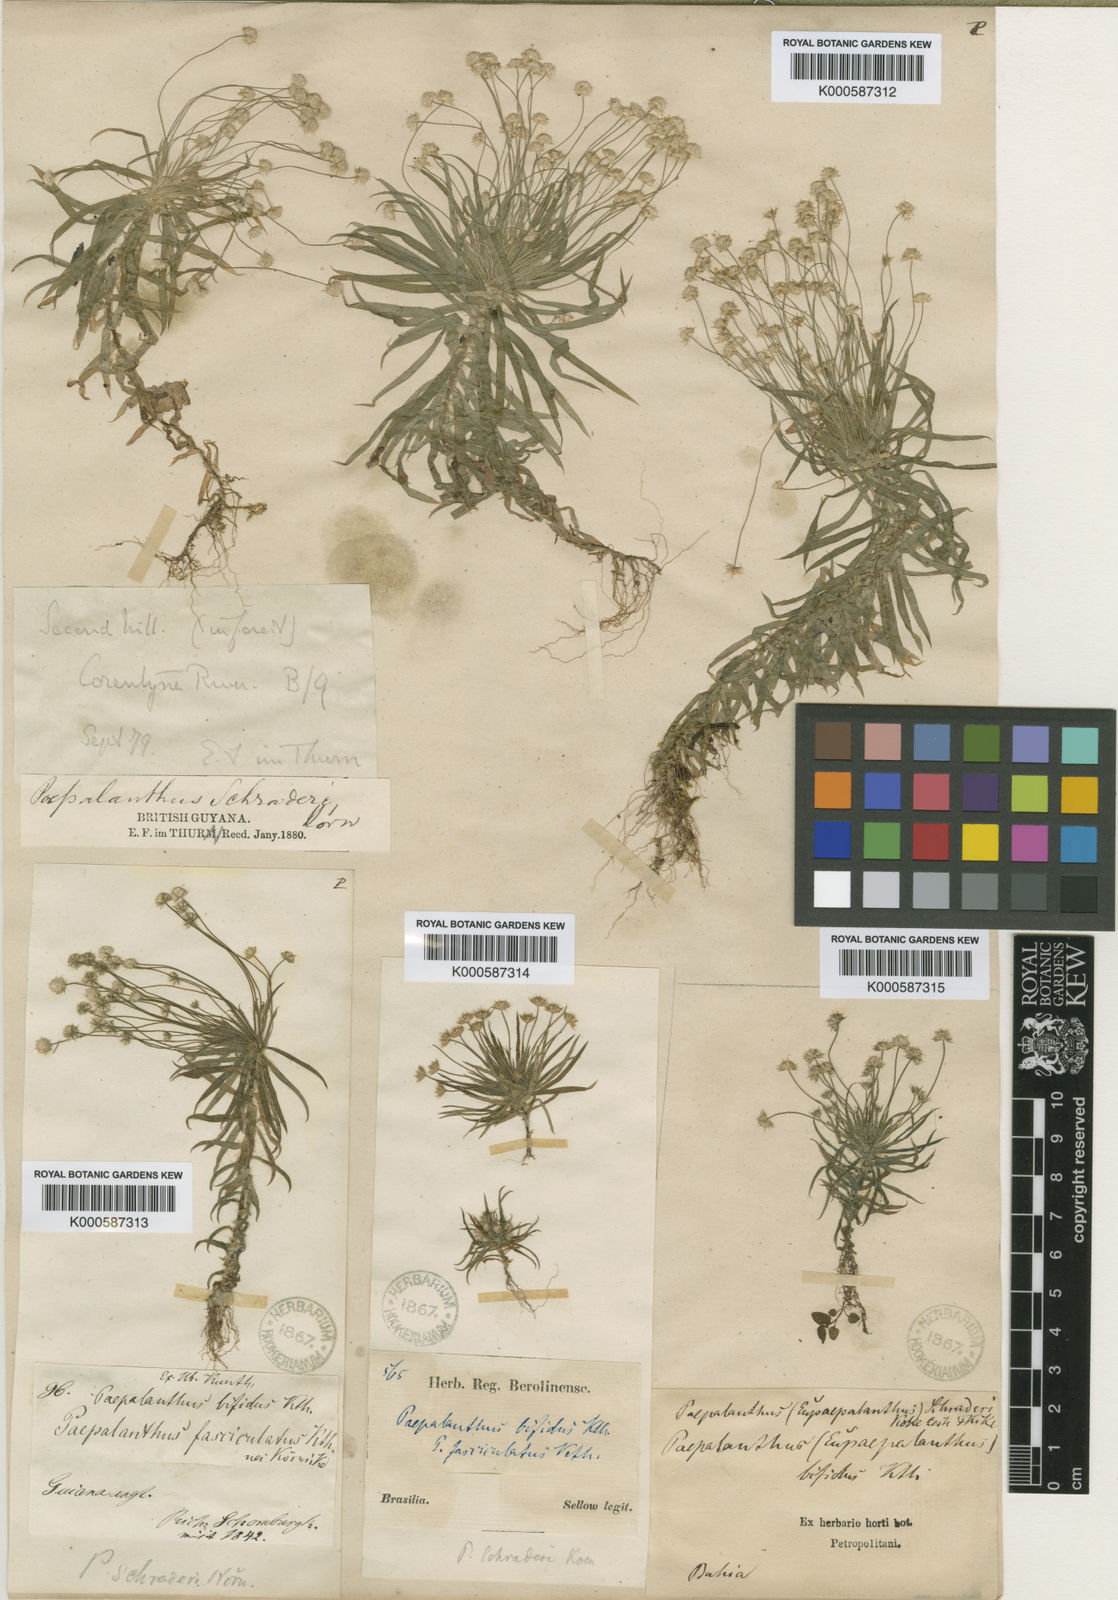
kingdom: Plantae
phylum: Tracheophyta
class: Liliopsida
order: Poales
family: Eriocaulaceae
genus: Paepalanthus
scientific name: Paepalanthus bifidus
